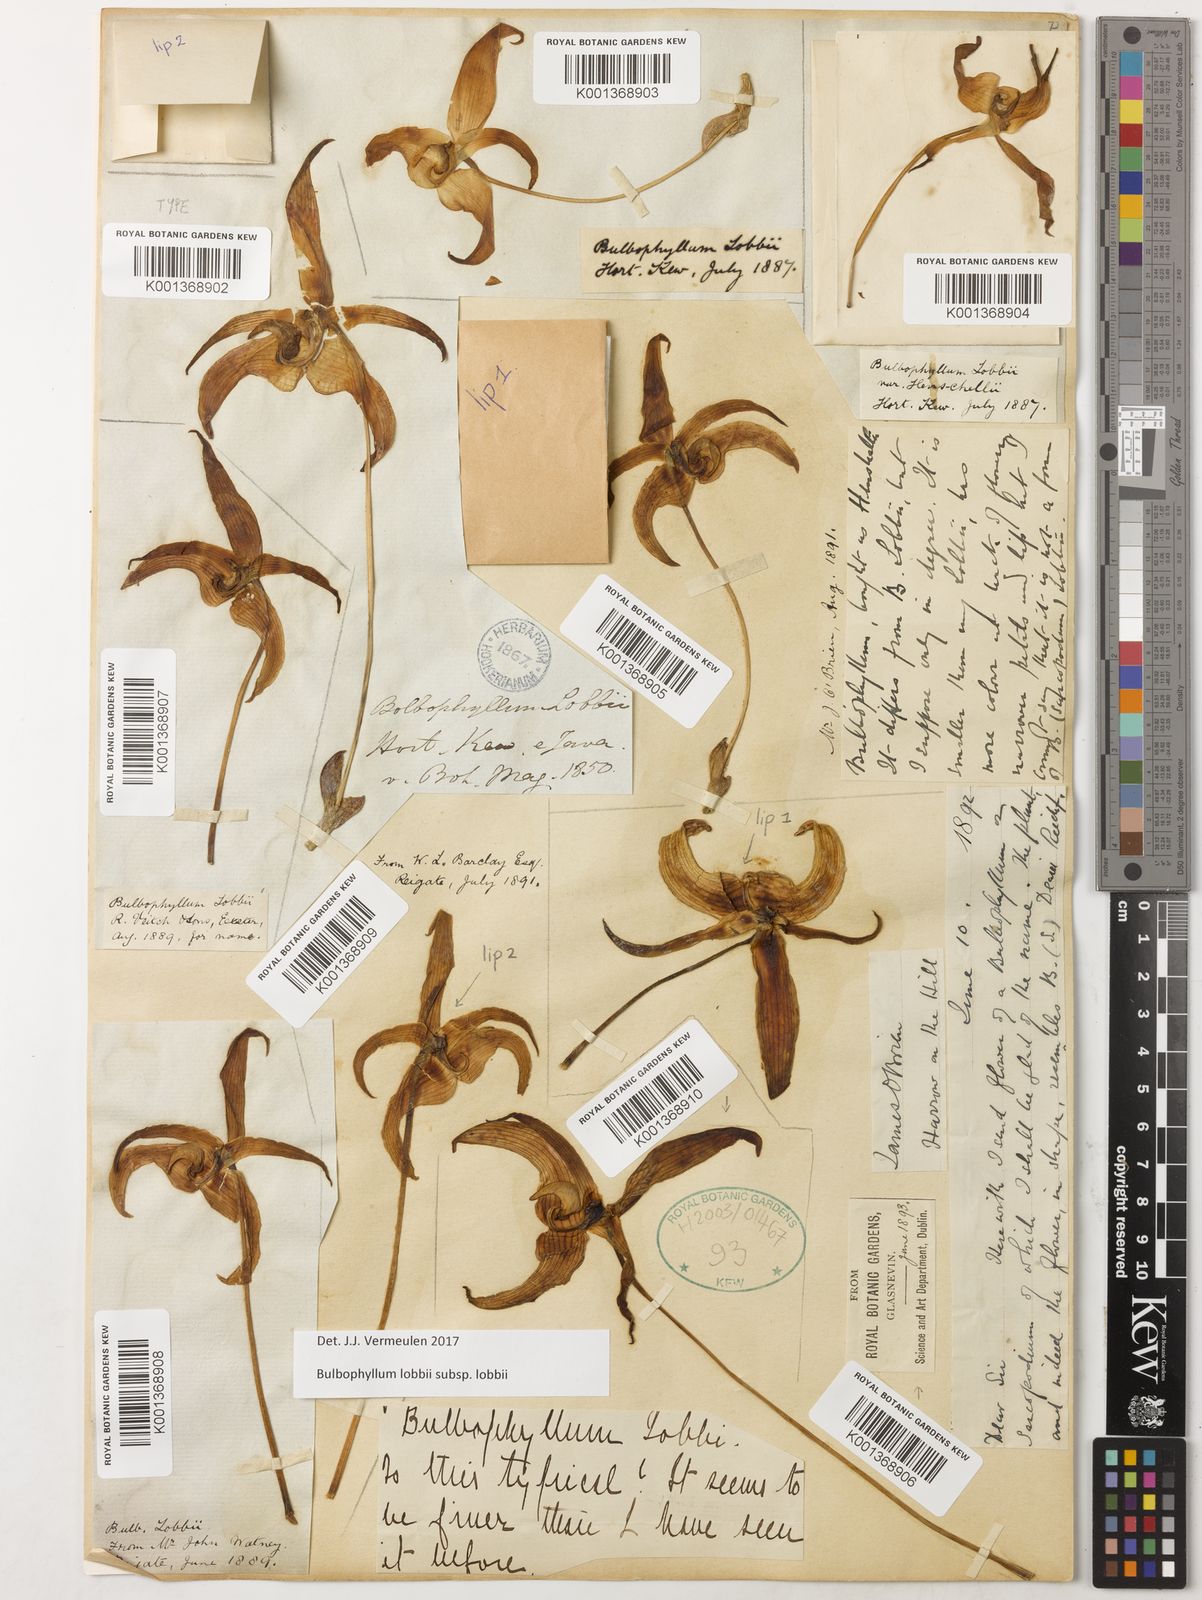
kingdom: Plantae
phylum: Tracheophyta
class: Liliopsida
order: Asparagales
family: Orchidaceae
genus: Bulbophyllum
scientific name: Bulbophyllum lobbii
